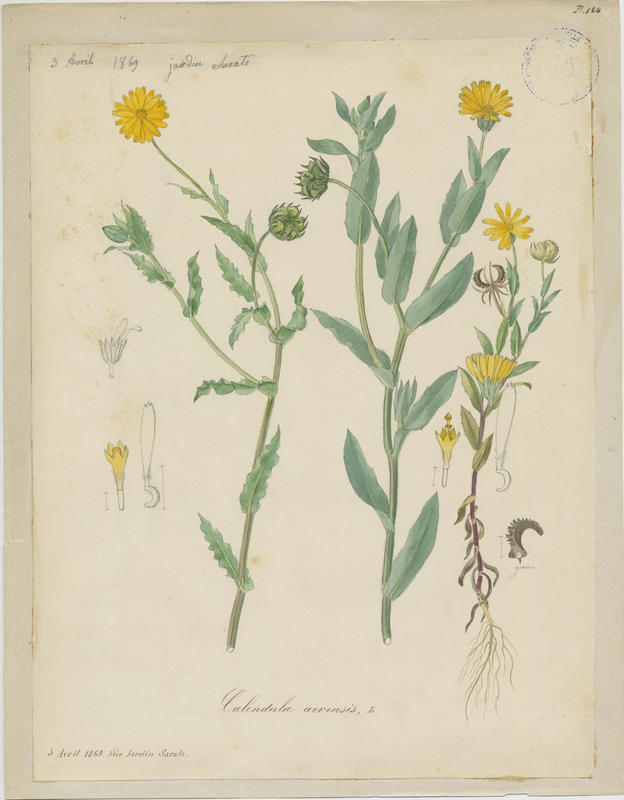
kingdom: Plantae
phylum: Tracheophyta
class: Magnoliopsida
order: Asterales
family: Asteraceae
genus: Calendula
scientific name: Calendula arvensis
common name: Field marigold
